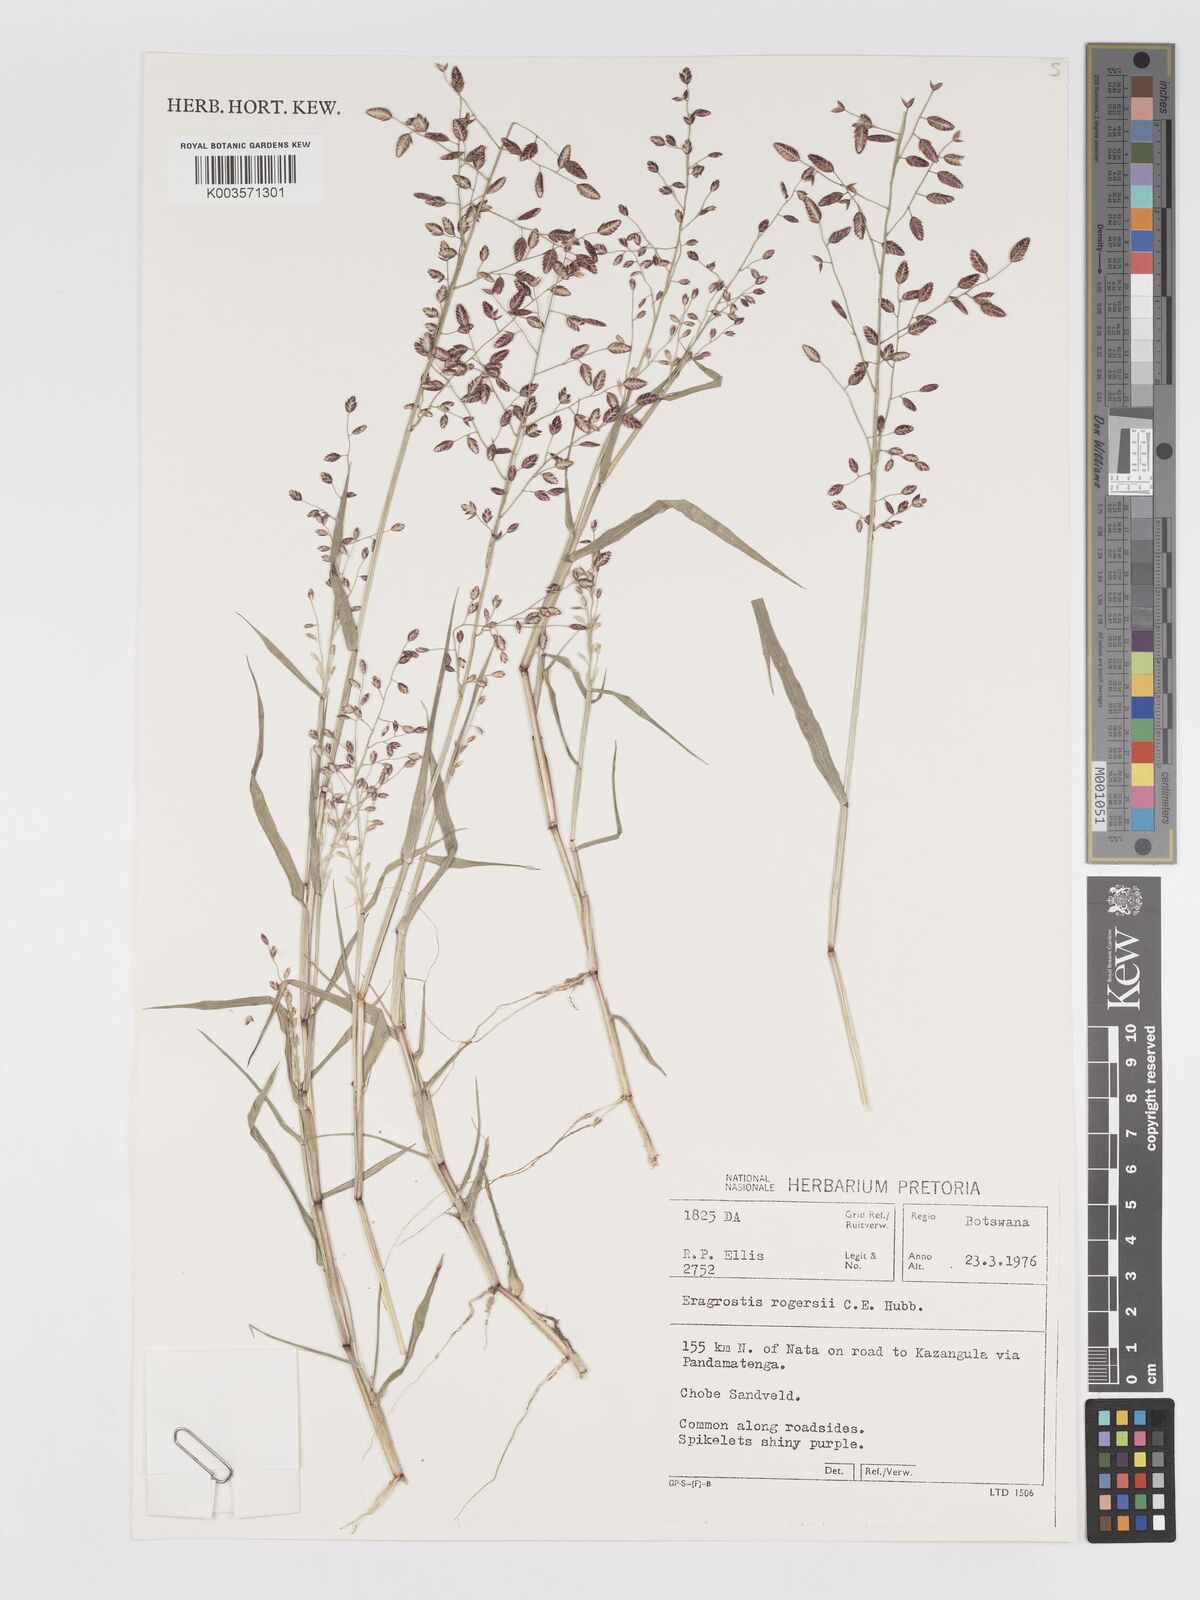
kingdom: Plantae
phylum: Tracheophyta
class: Liliopsida
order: Poales
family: Poaceae
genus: Eragrostis
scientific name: Eragrostis rogersii
